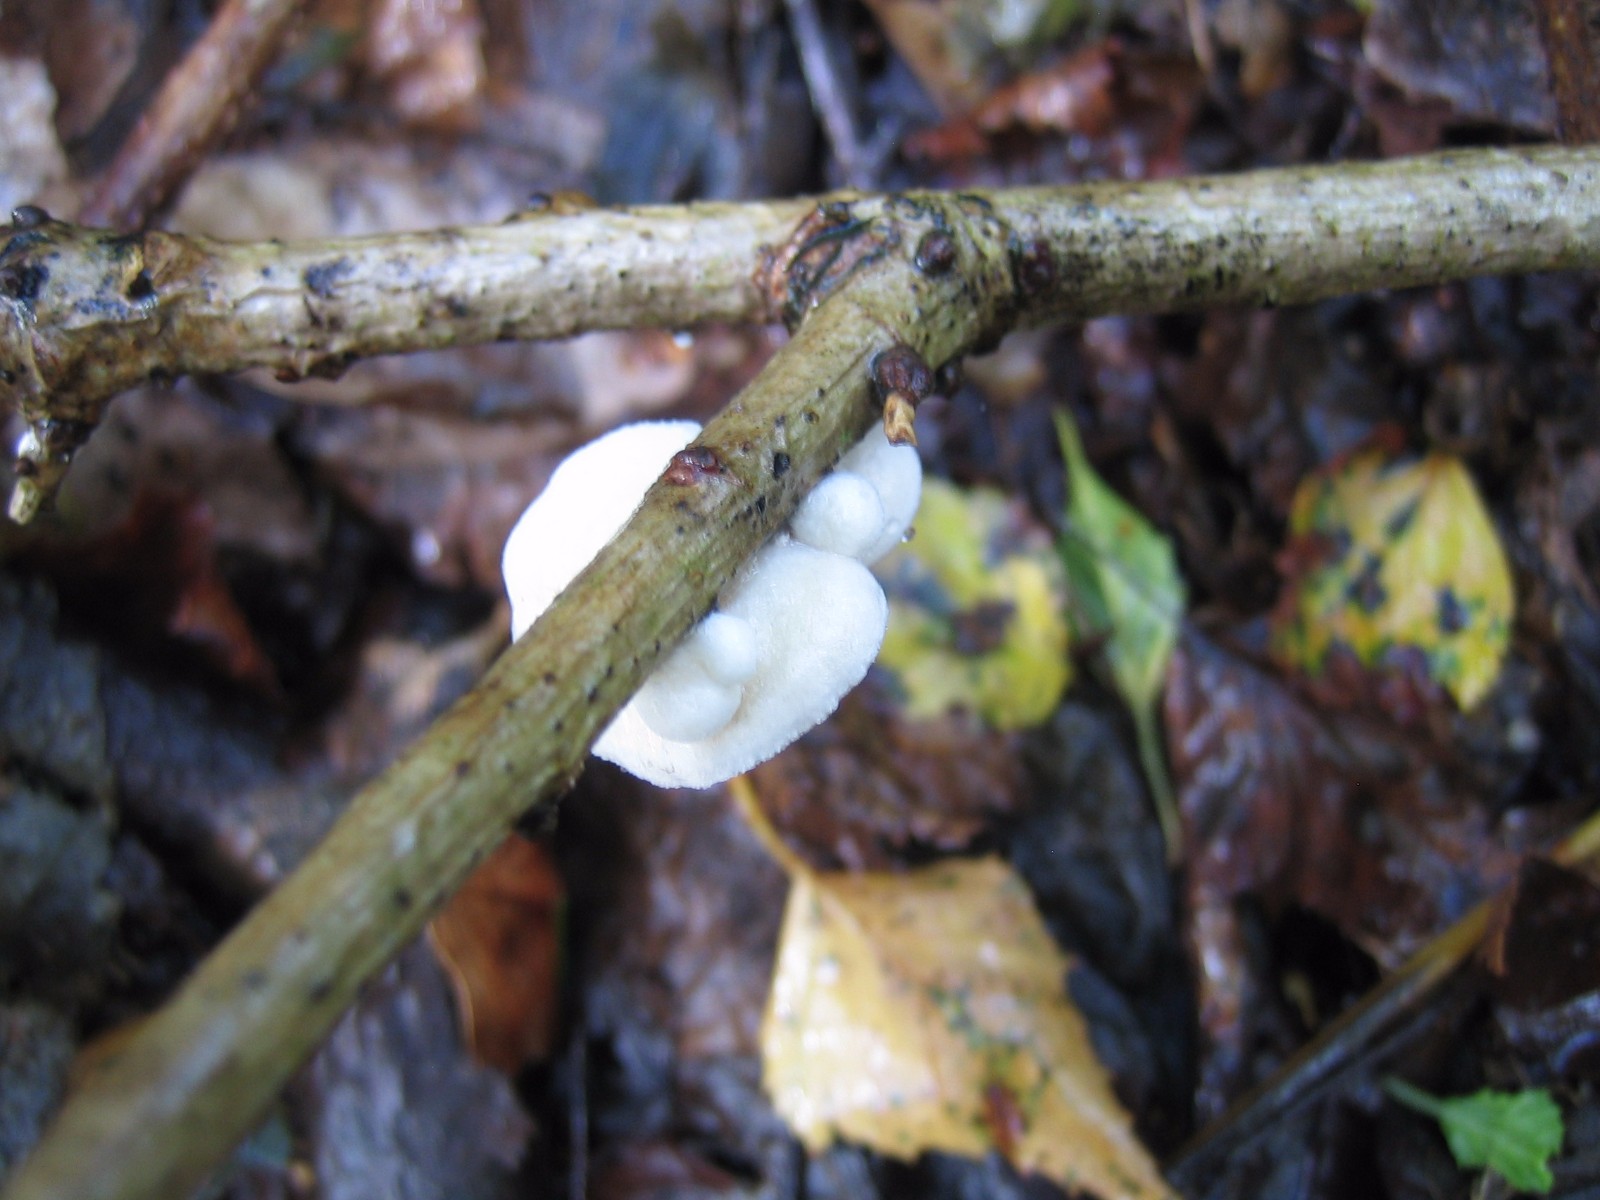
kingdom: Fungi
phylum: Basidiomycota
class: Agaricomycetes
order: Agaricales
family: Crepidotaceae
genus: Crepidotus
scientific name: Crepidotus
